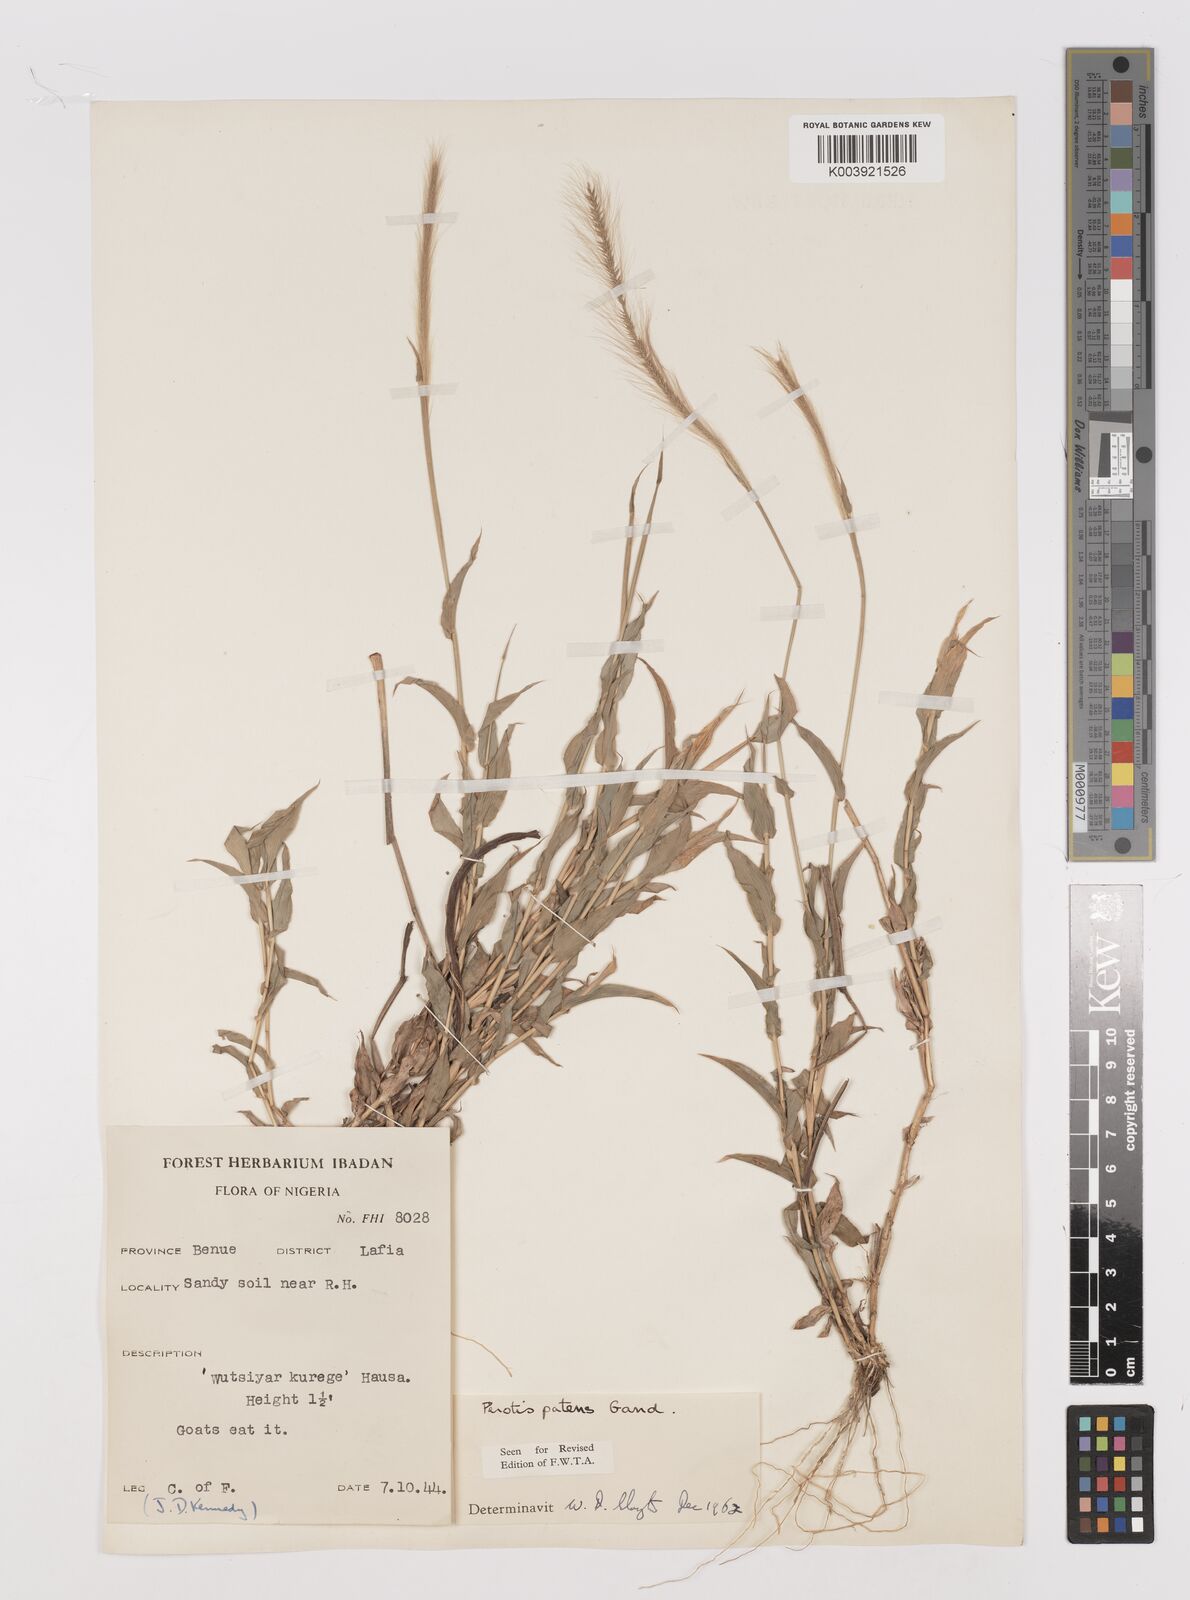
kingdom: Plantae
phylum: Tracheophyta
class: Liliopsida
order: Poales
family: Poaceae
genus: Perotis
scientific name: Perotis patens
